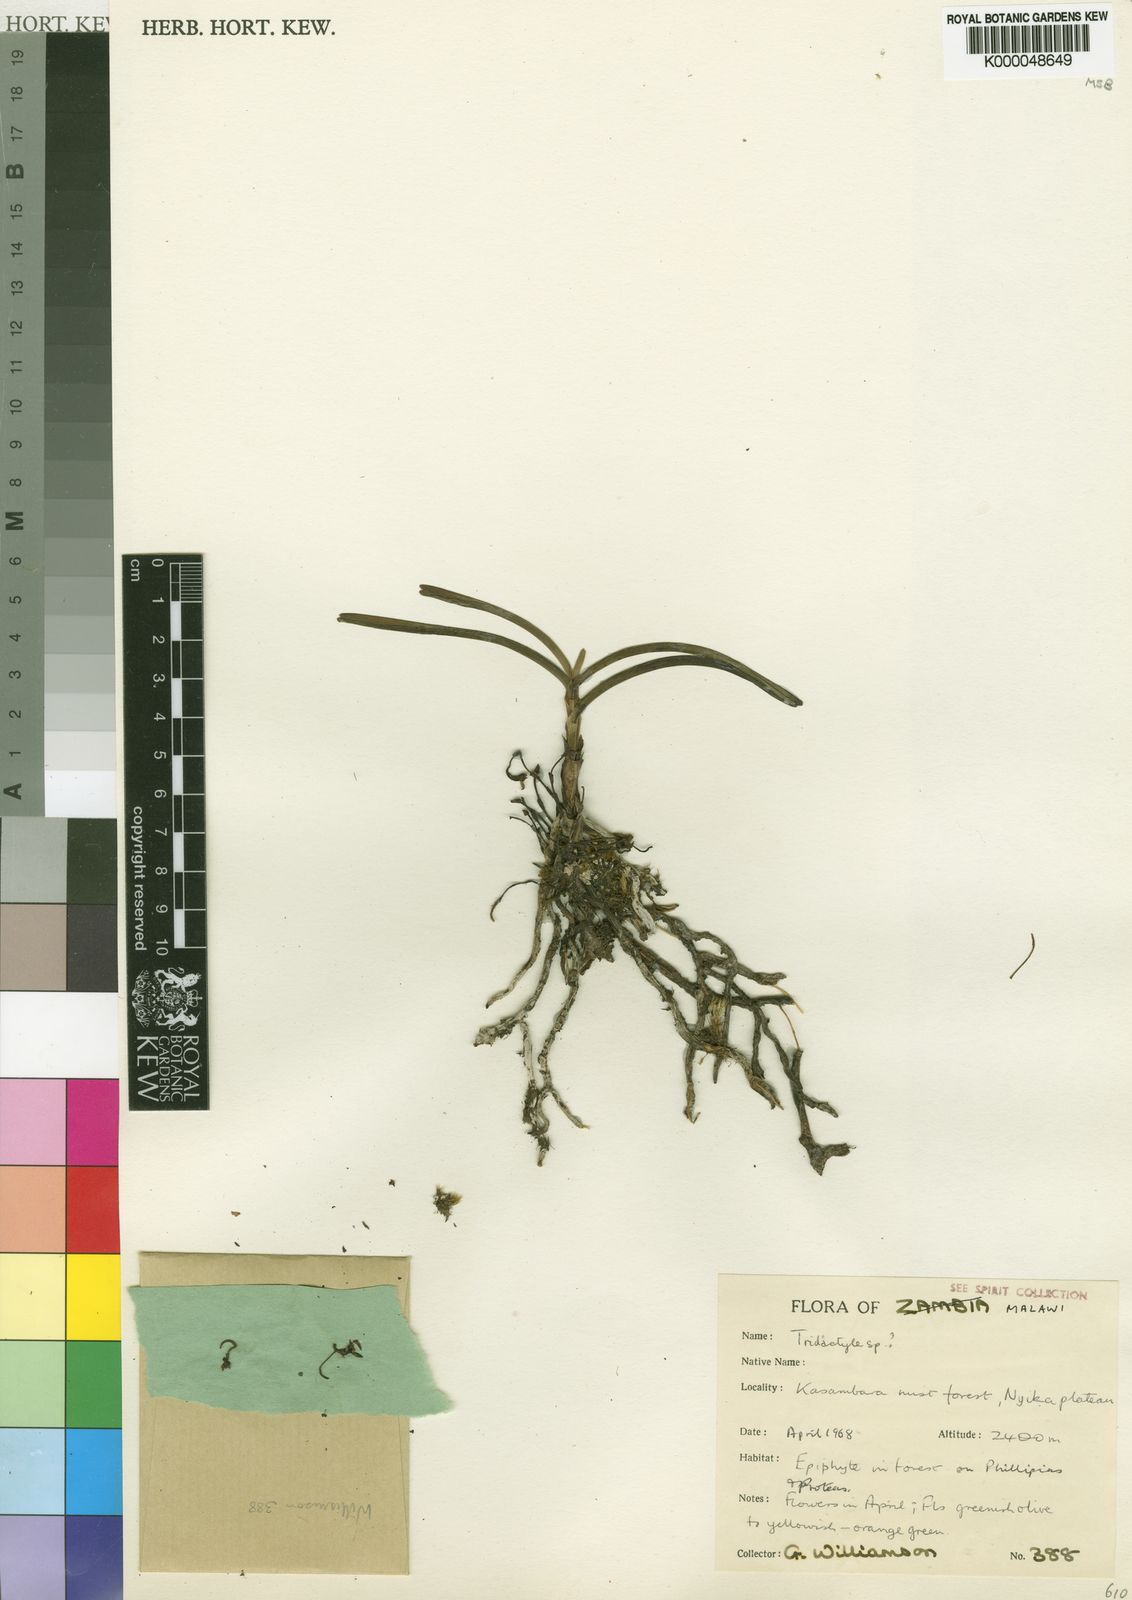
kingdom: Plantae
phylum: Tracheophyta
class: Liliopsida
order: Asparagales
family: Orchidaceae
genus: Cardiochilos
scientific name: Cardiochilos williamsonii
